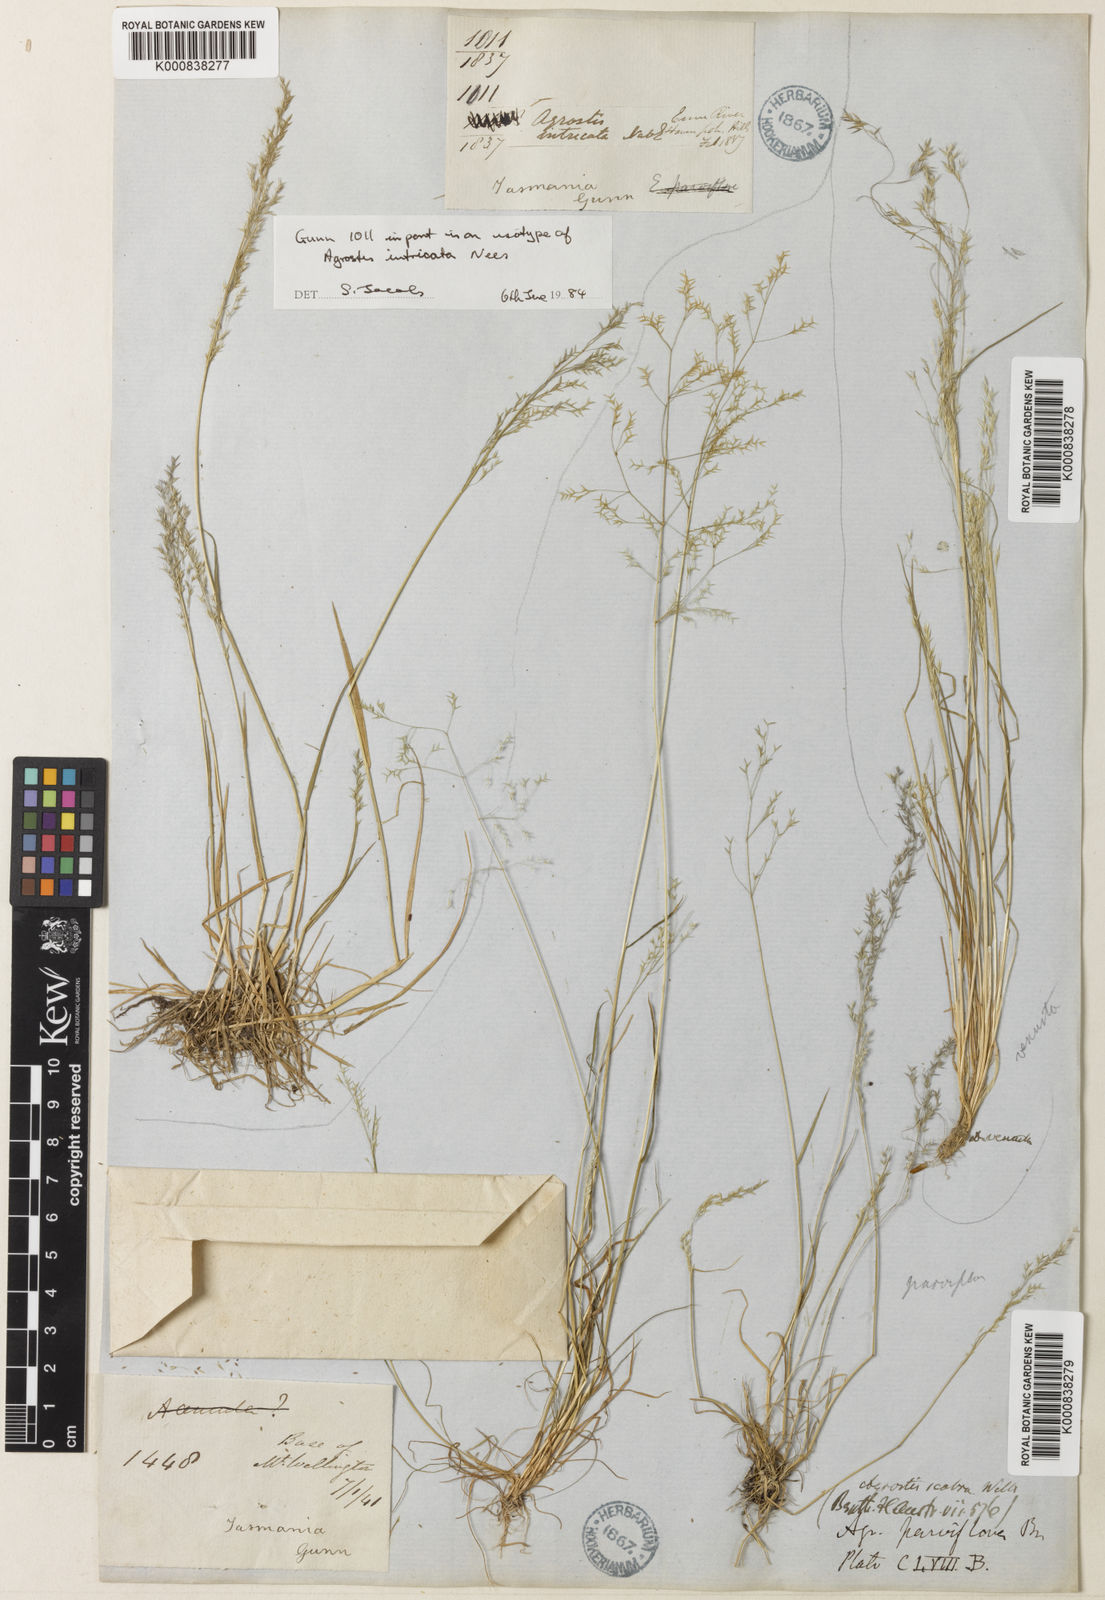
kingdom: Plantae
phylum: Tracheophyta
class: Liliopsida
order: Poales
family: Poaceae
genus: Agrostis
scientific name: Agrostis parviflora
